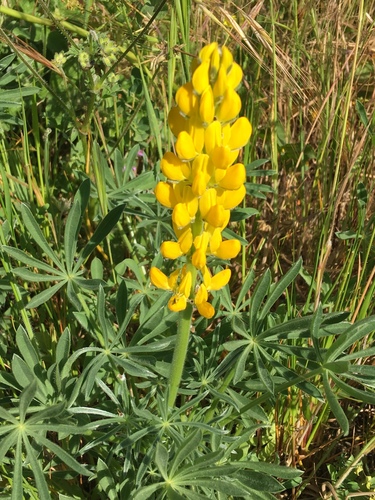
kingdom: Plantae
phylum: Tracheophyta
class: Magnoliopsida
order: Fabales
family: Fabaceae
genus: Lupinus
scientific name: Lupinus luteus
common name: European yellow lupine
